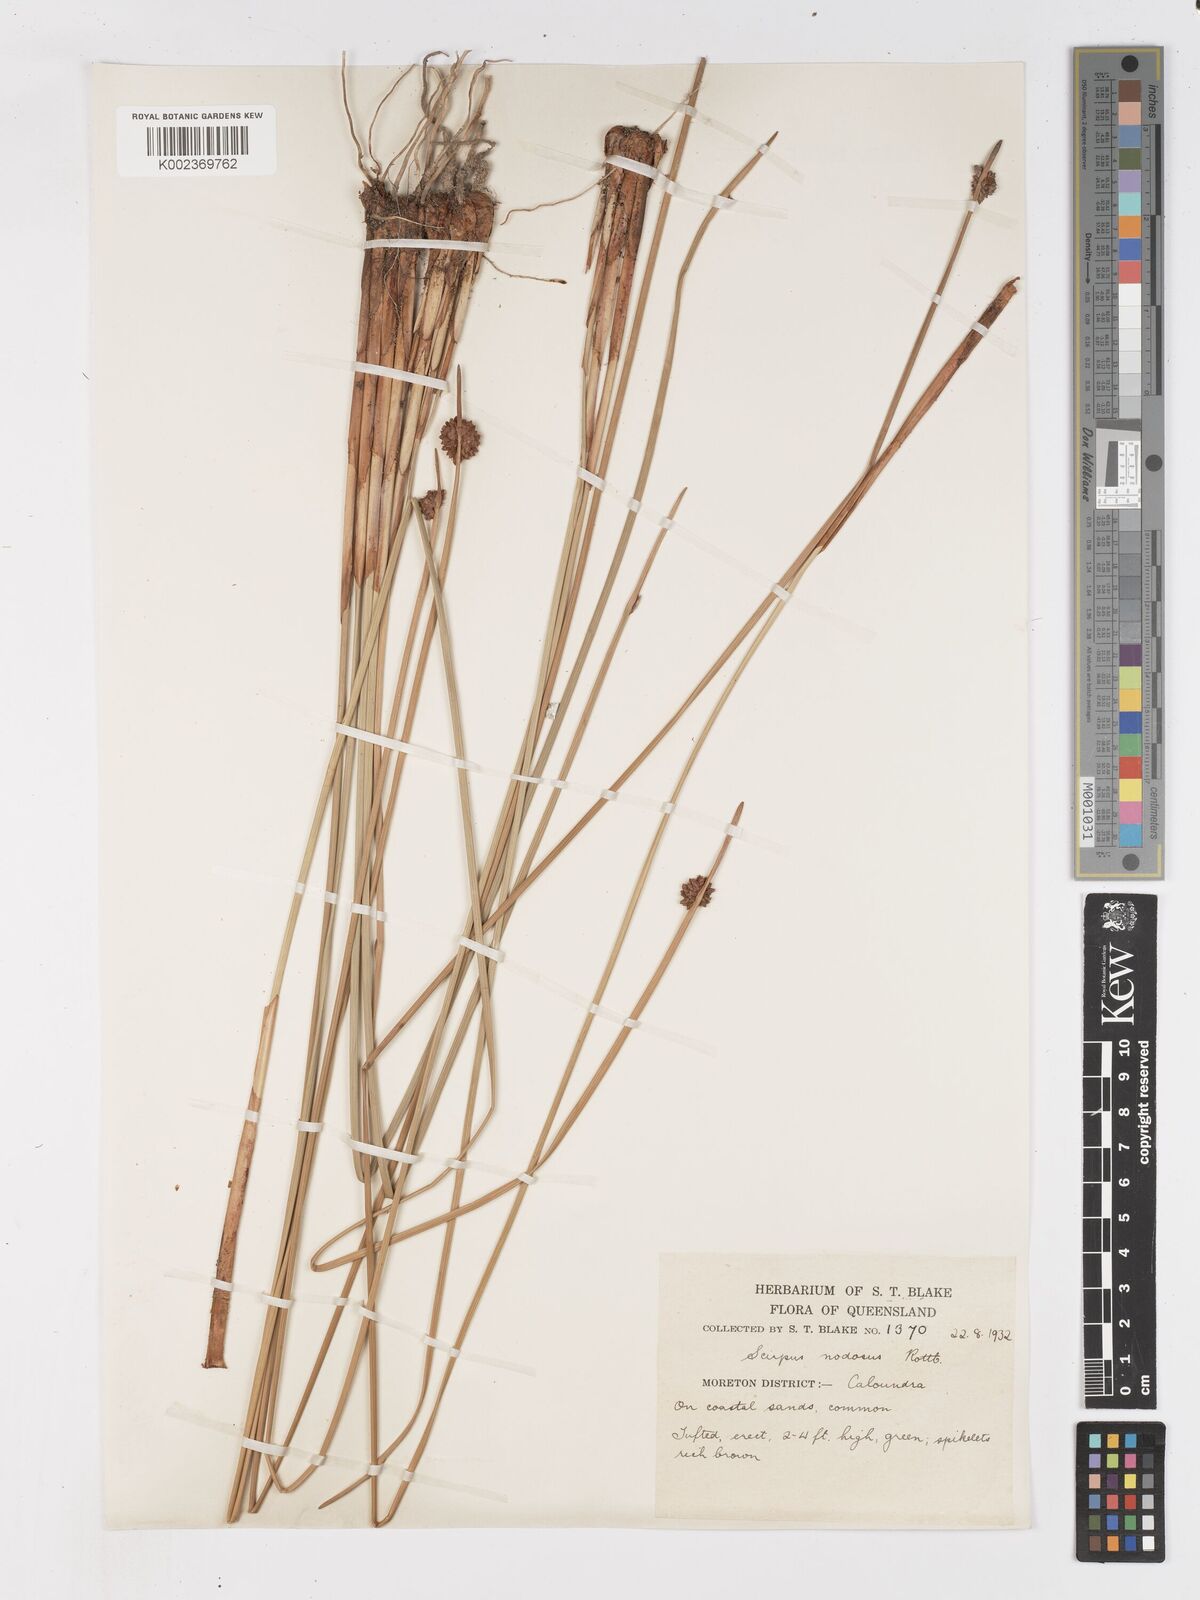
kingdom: Plantae
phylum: Tracheophyta
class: Liliopsida
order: Poales
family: Cyperaceae
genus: Ficinia
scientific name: Ficinia nodosa
